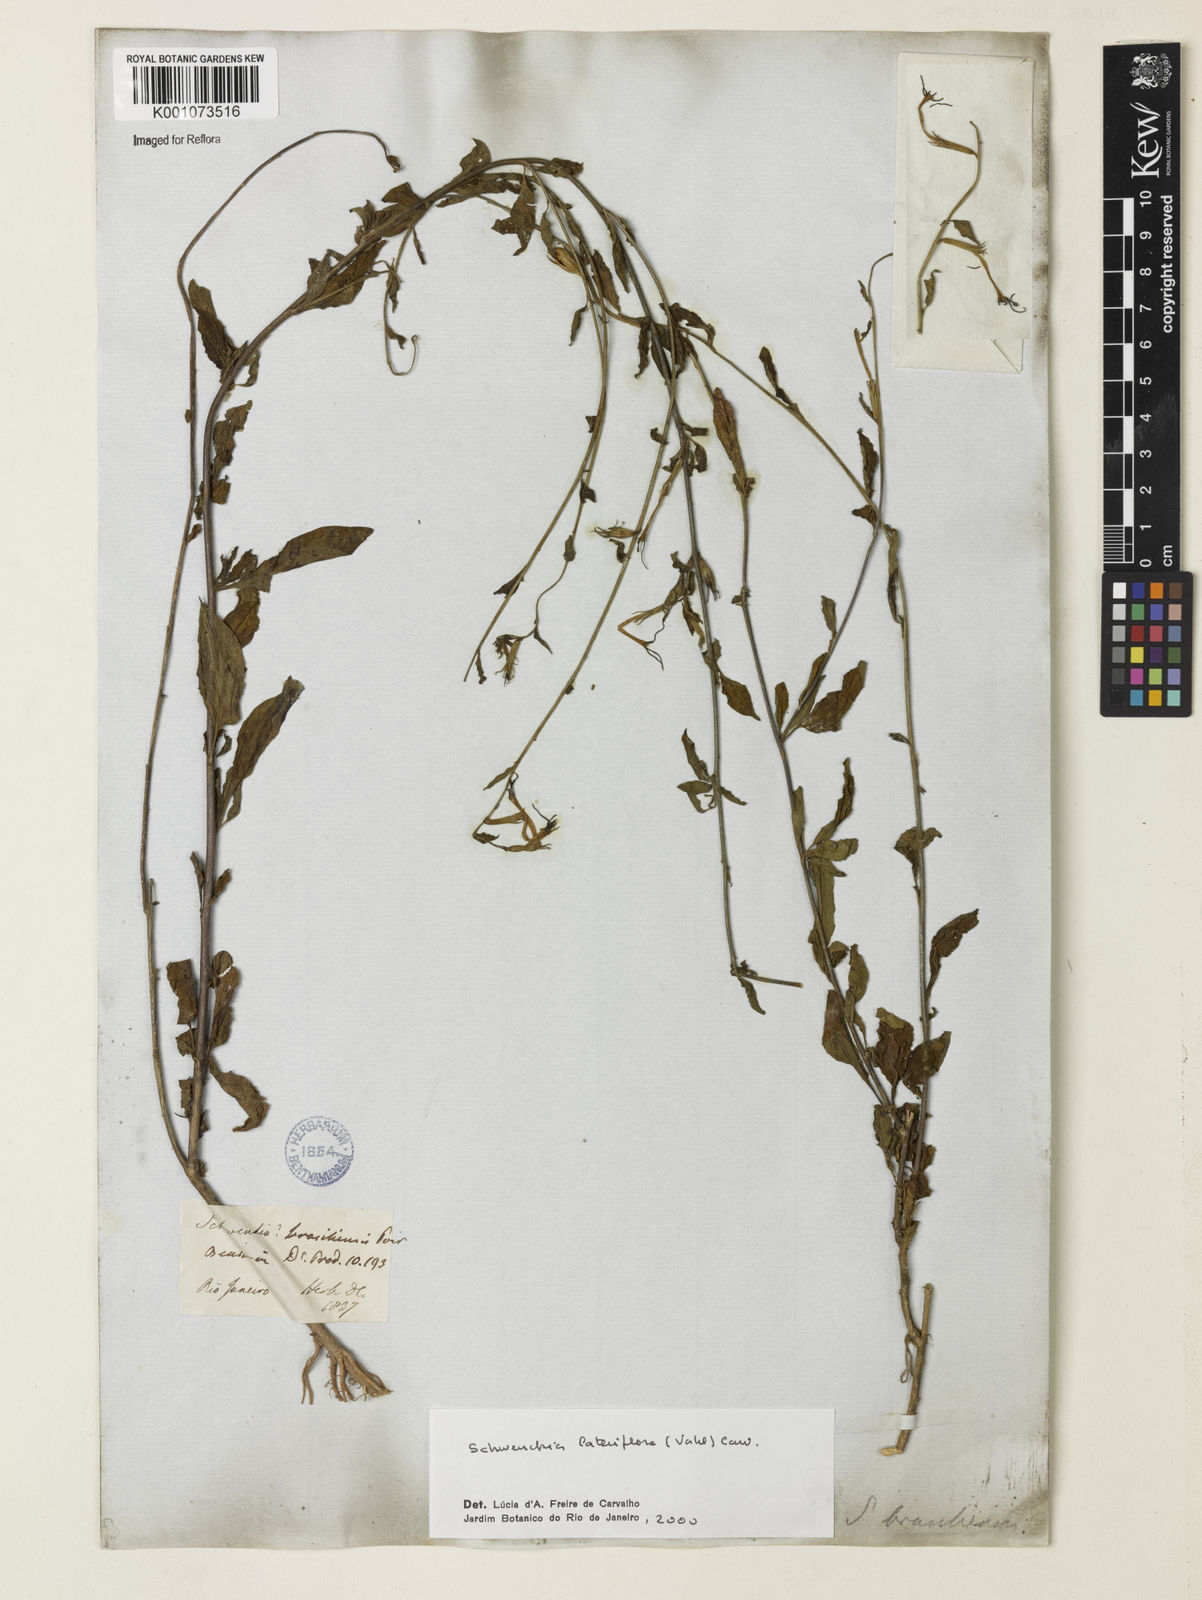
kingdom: Plantae
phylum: Tracheophyta
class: Magnoliopsida
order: Solanales
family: Solanaceae
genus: Schwenckia
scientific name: Schwenckia lateriflora
